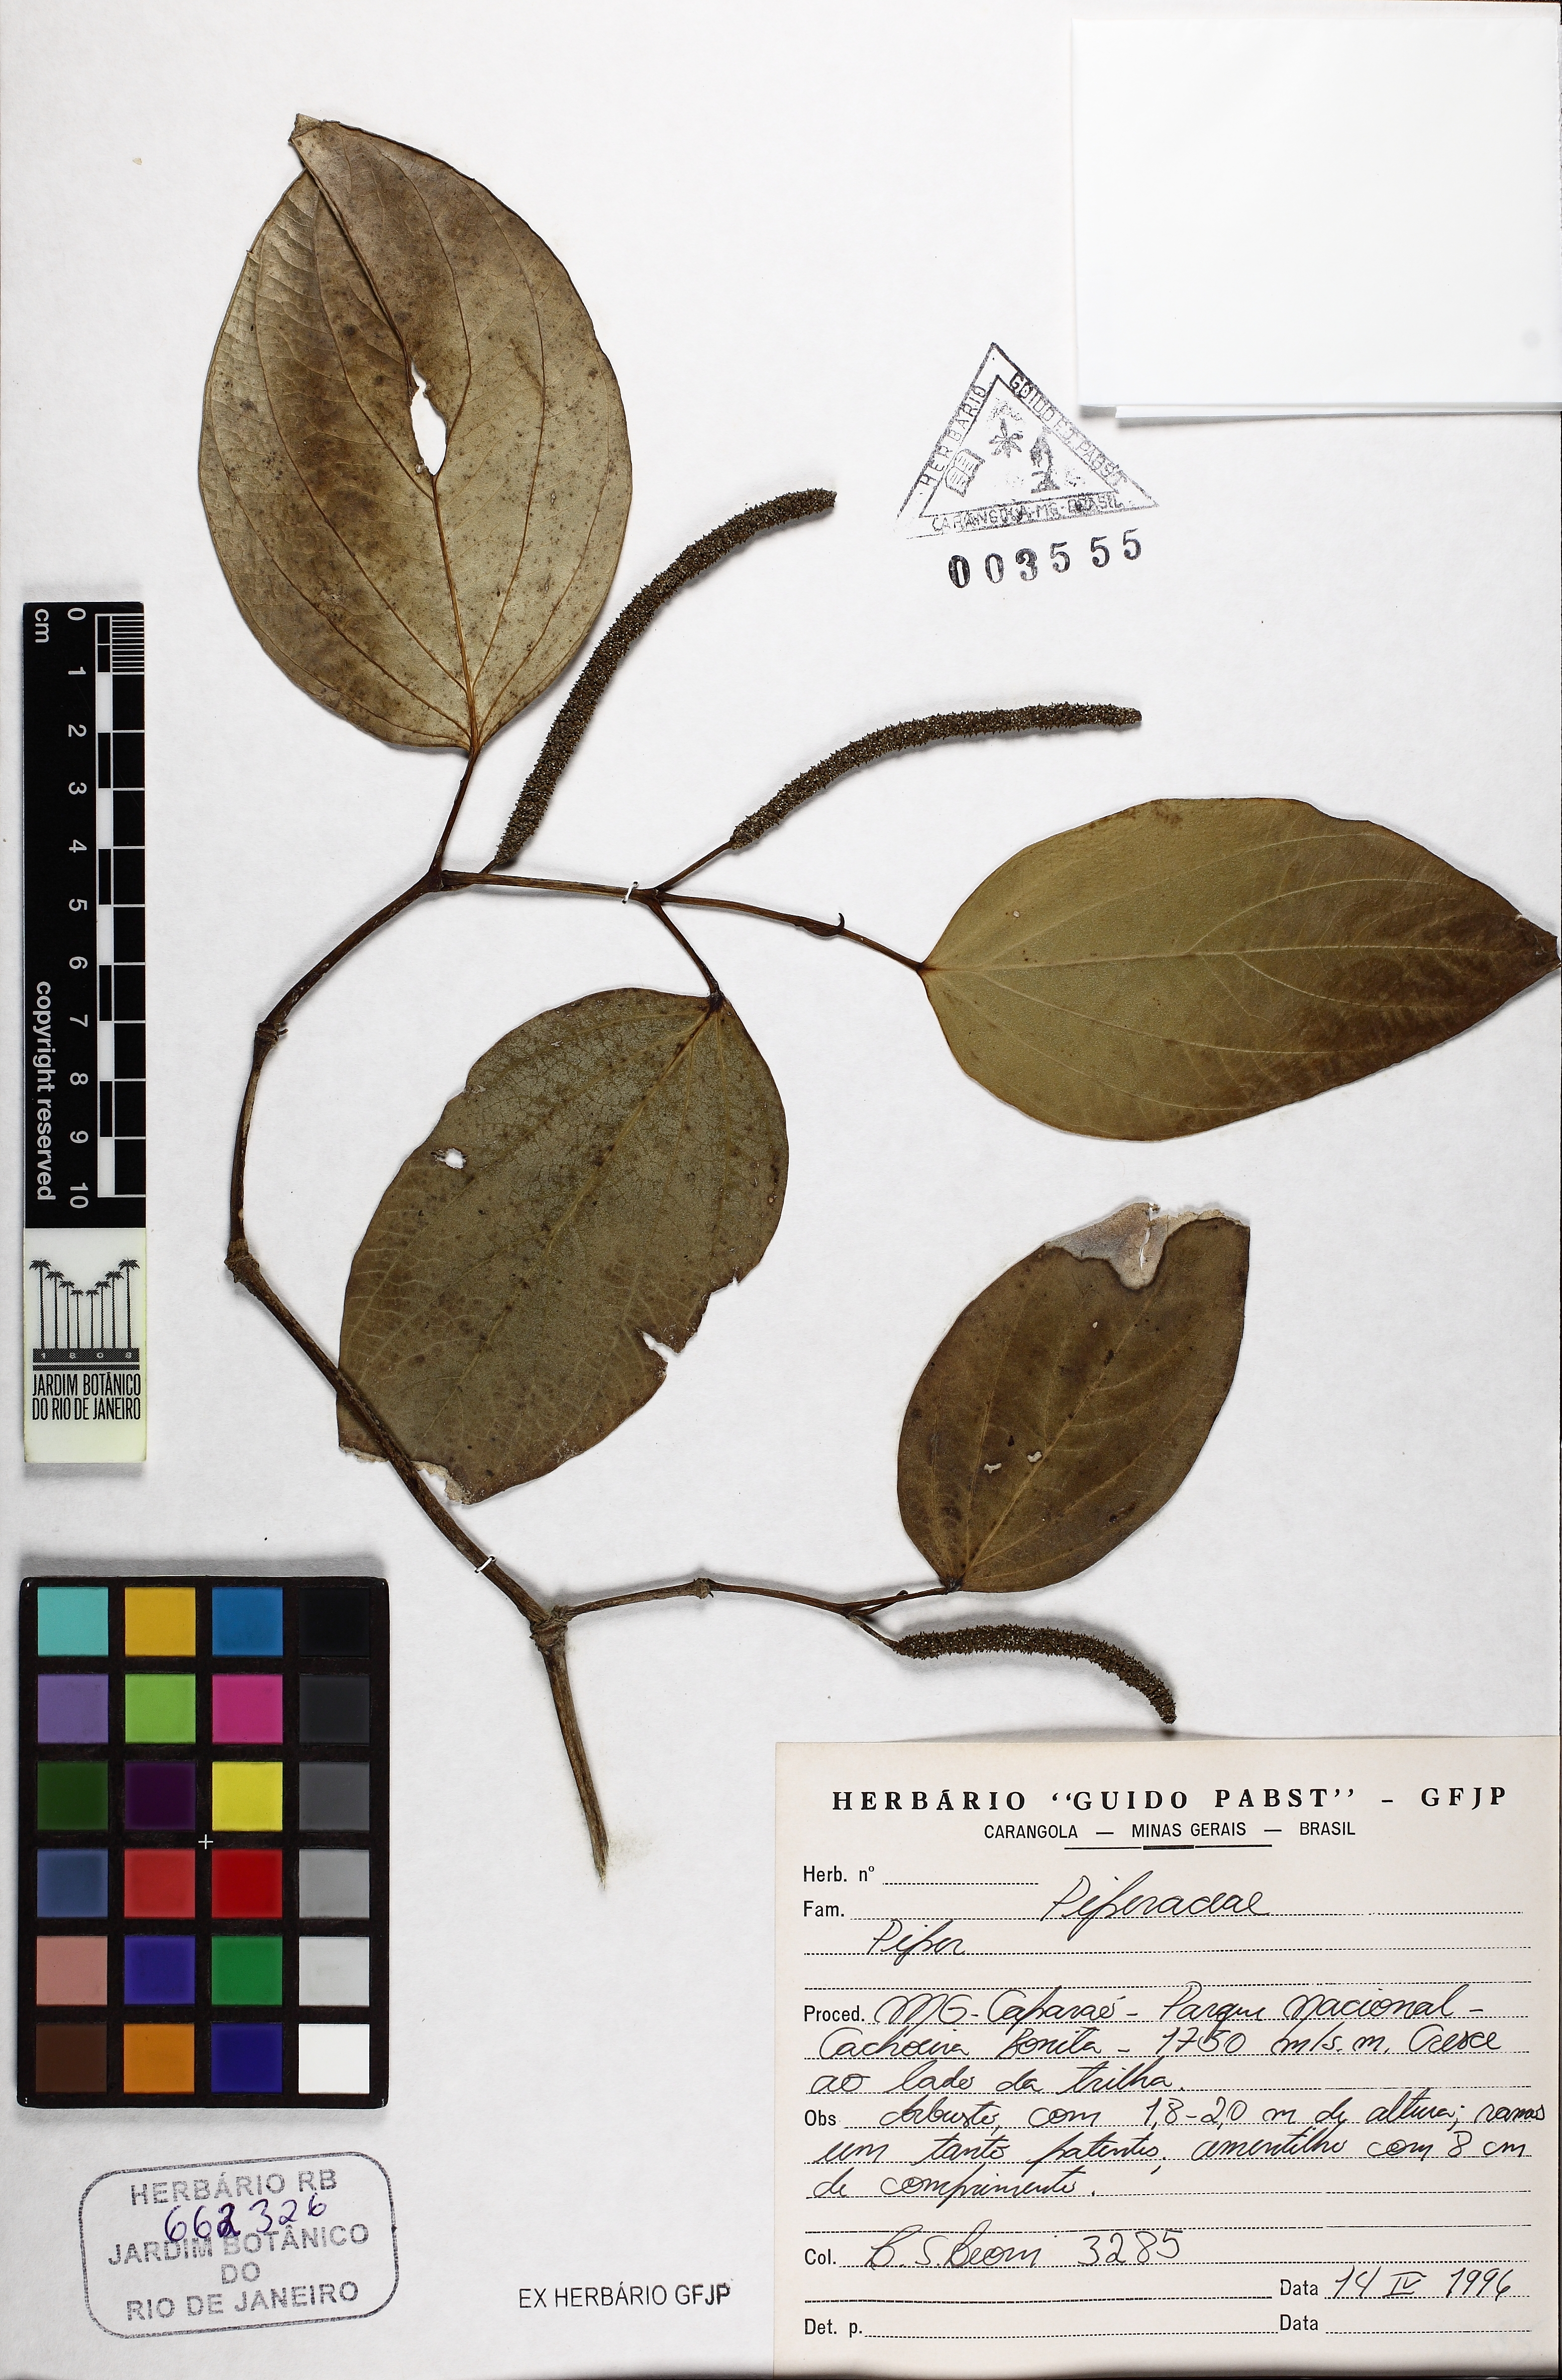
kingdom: Plantae
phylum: Tracheophyta
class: Magnoliopsida
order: Piperales
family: Piperaceae
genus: Piper
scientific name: Piper solmsianum
